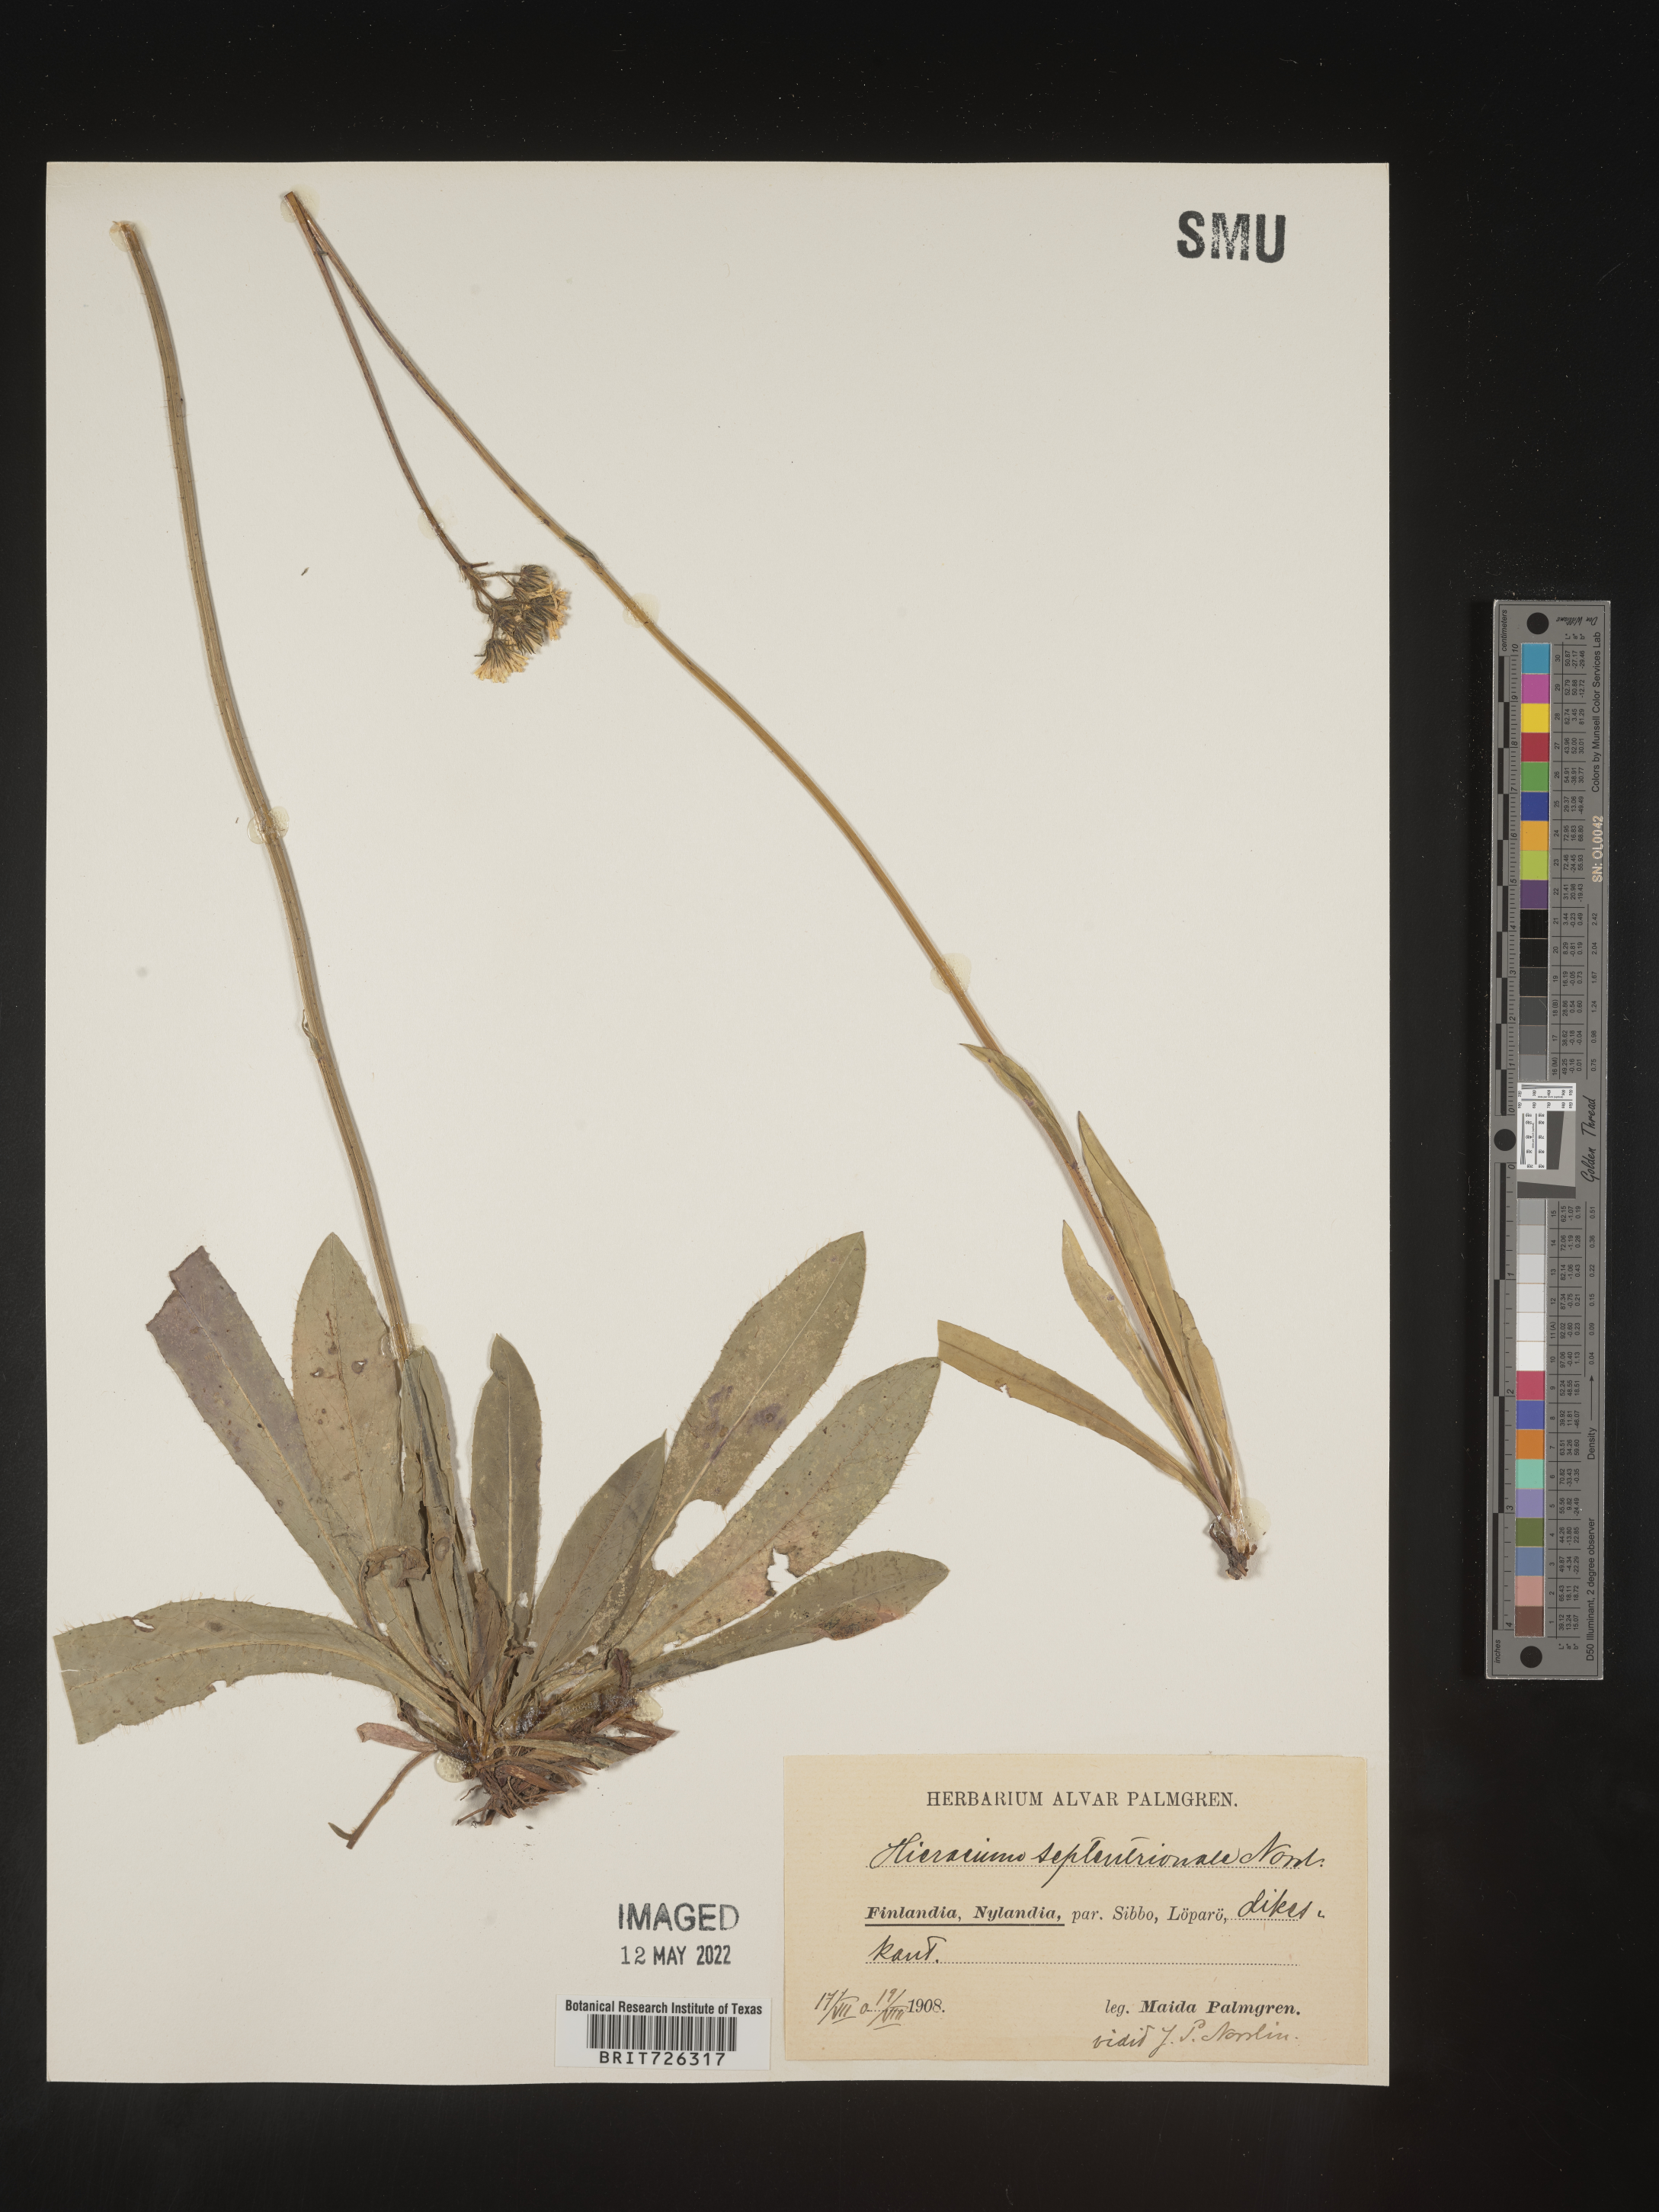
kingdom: Plantae
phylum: Tracheophyta
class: Magnoliopsida
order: Asterales
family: Asteraceae
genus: Hieracium
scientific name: Hieracium
